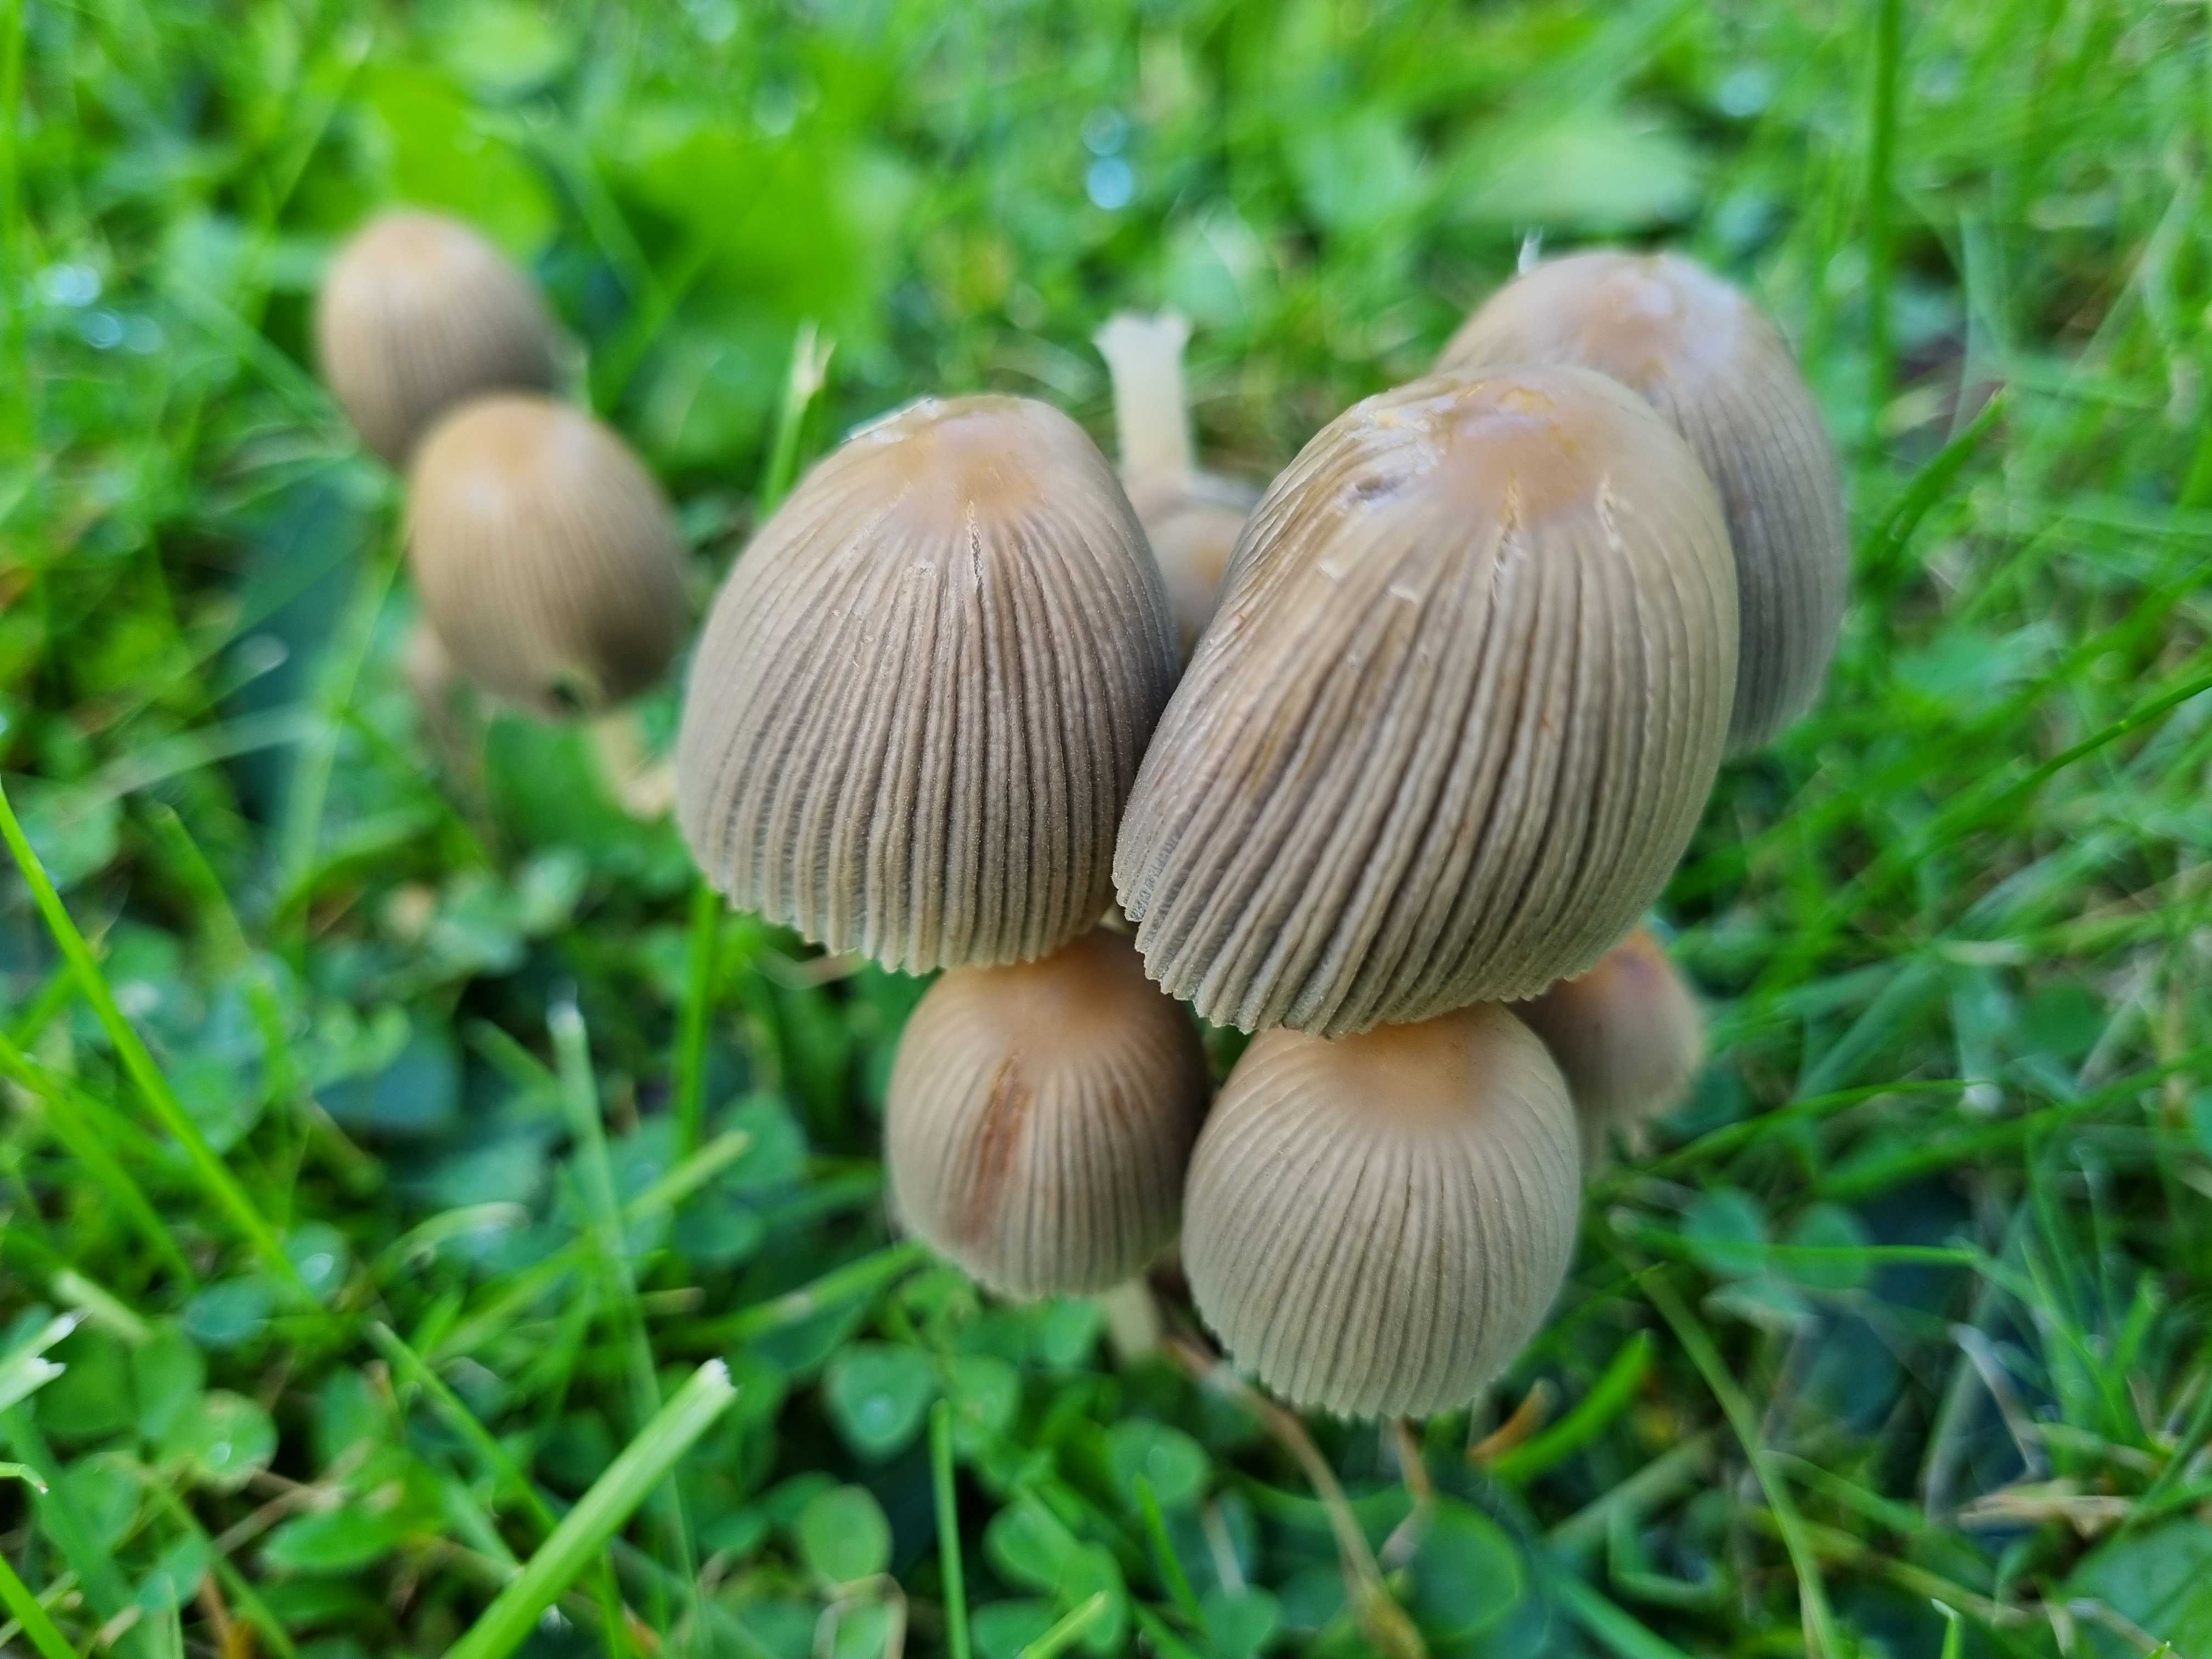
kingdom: Fungi
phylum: Basidiomycota
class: Agaricomycetes
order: Agaricales
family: Psathyrellaceae
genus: Coprinellus
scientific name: Coprinellus
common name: blækhat
